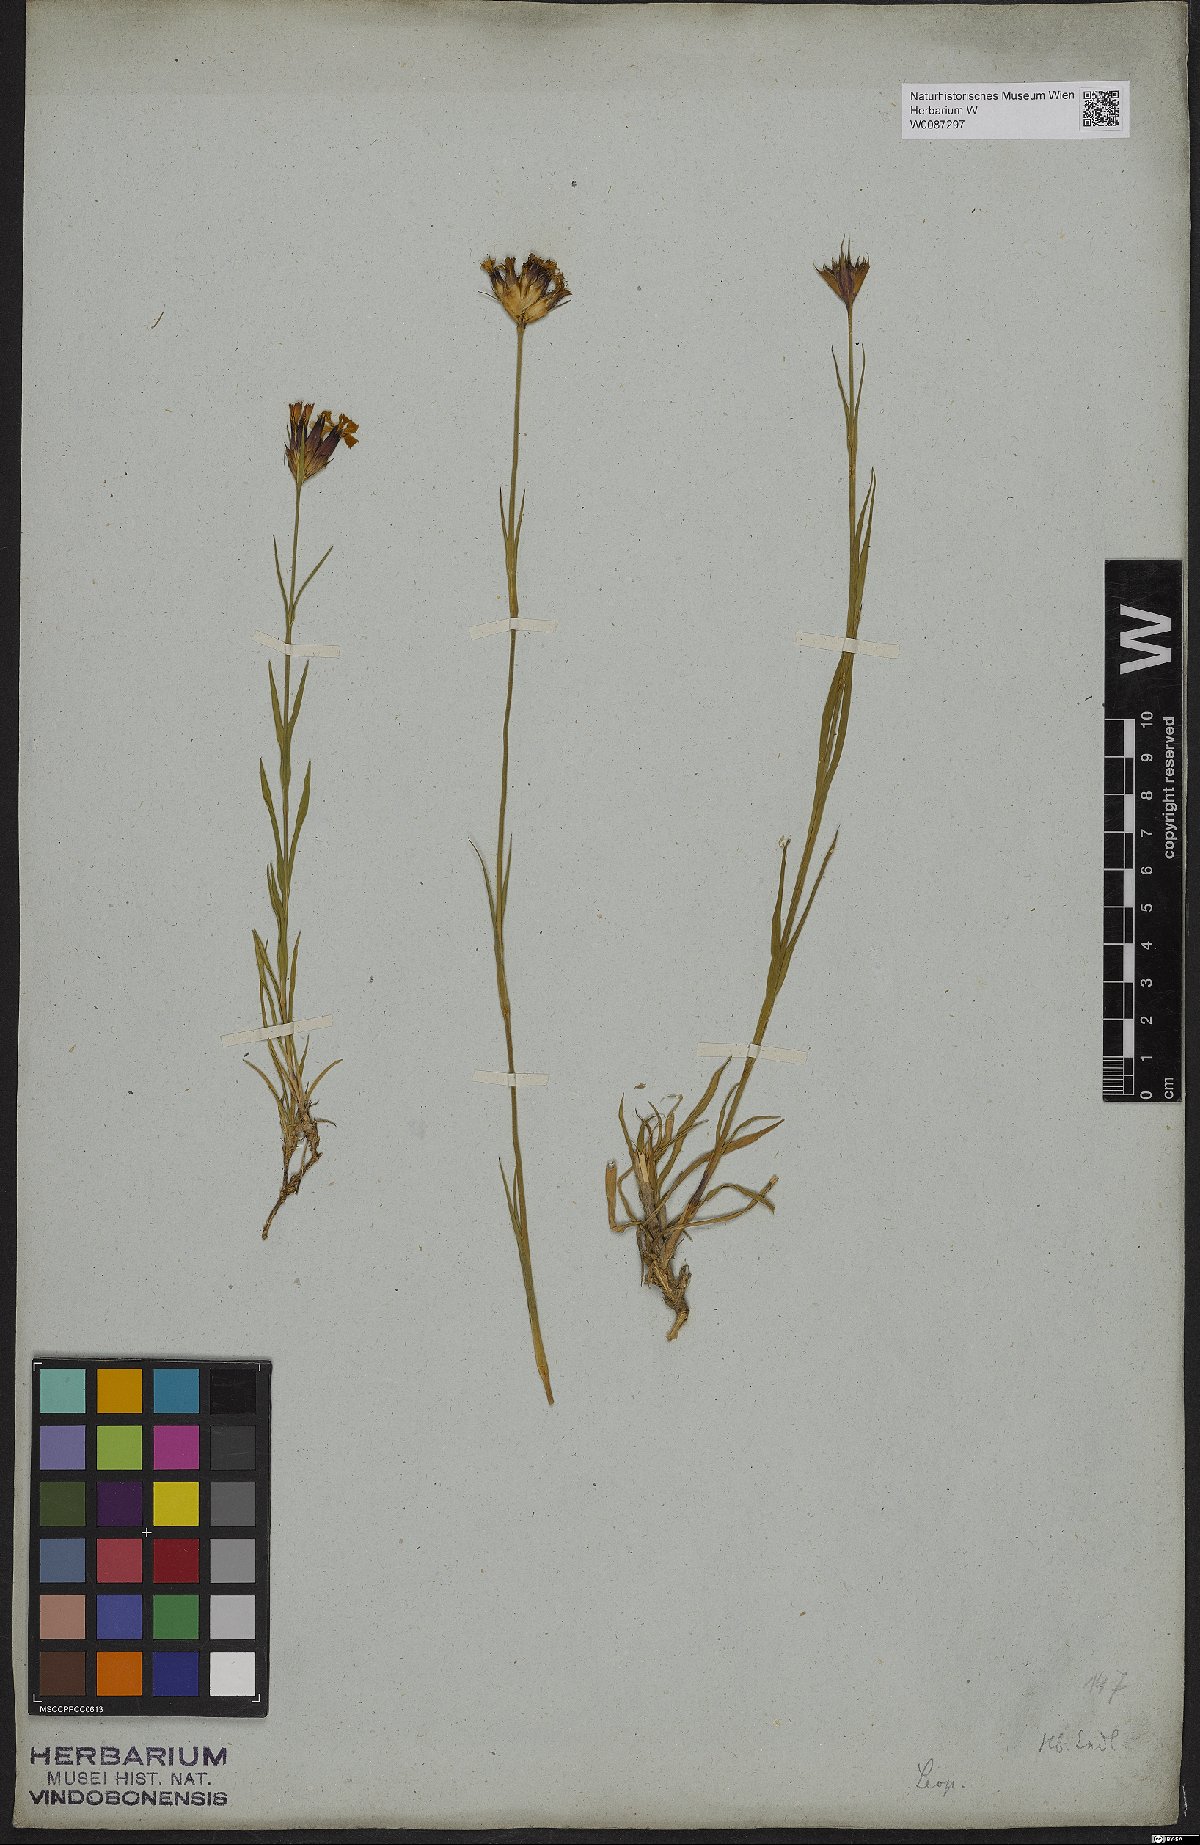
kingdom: Plantae
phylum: Tracheophyta
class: Magnoliopsida
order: Caryophyllales
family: Caryophyllaceae
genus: Dianthus
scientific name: Dianthus
